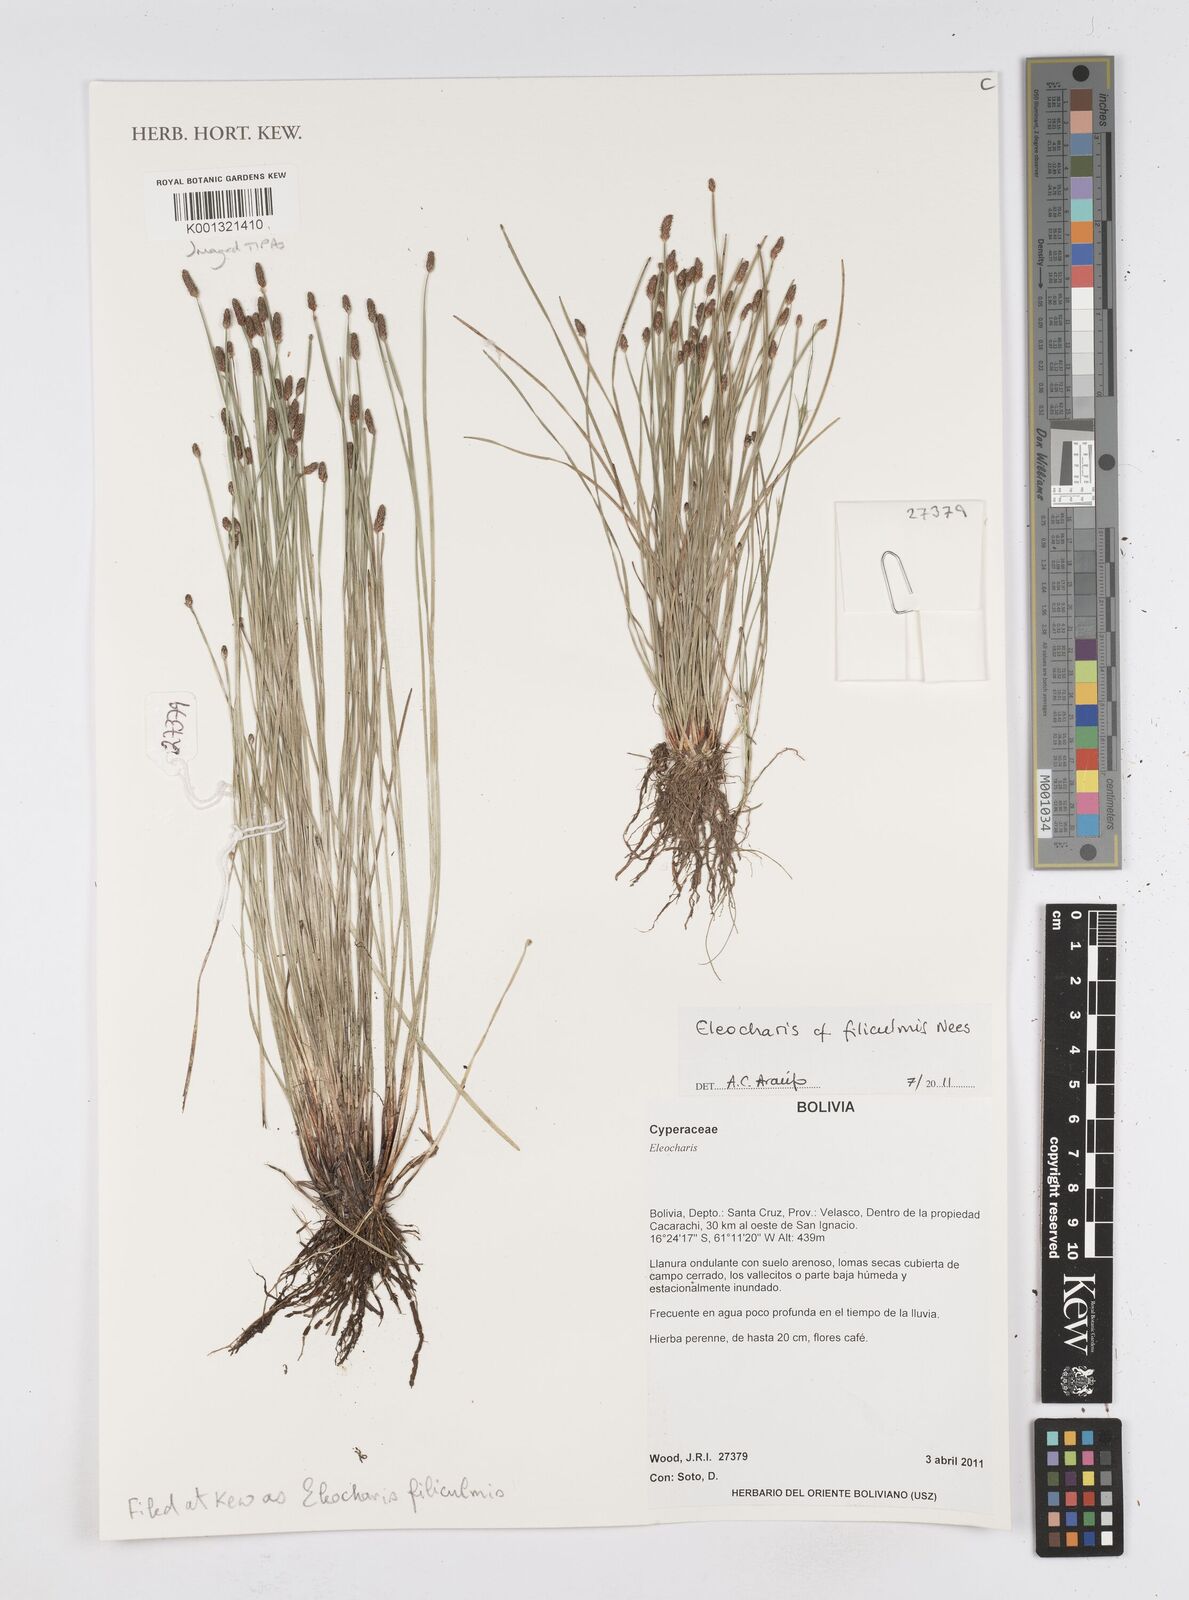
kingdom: Plantae
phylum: Tracheophyta
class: Liliopsida
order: Poales
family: Cyperaceae
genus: Eleocharis
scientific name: Eleocharis filiculmis
